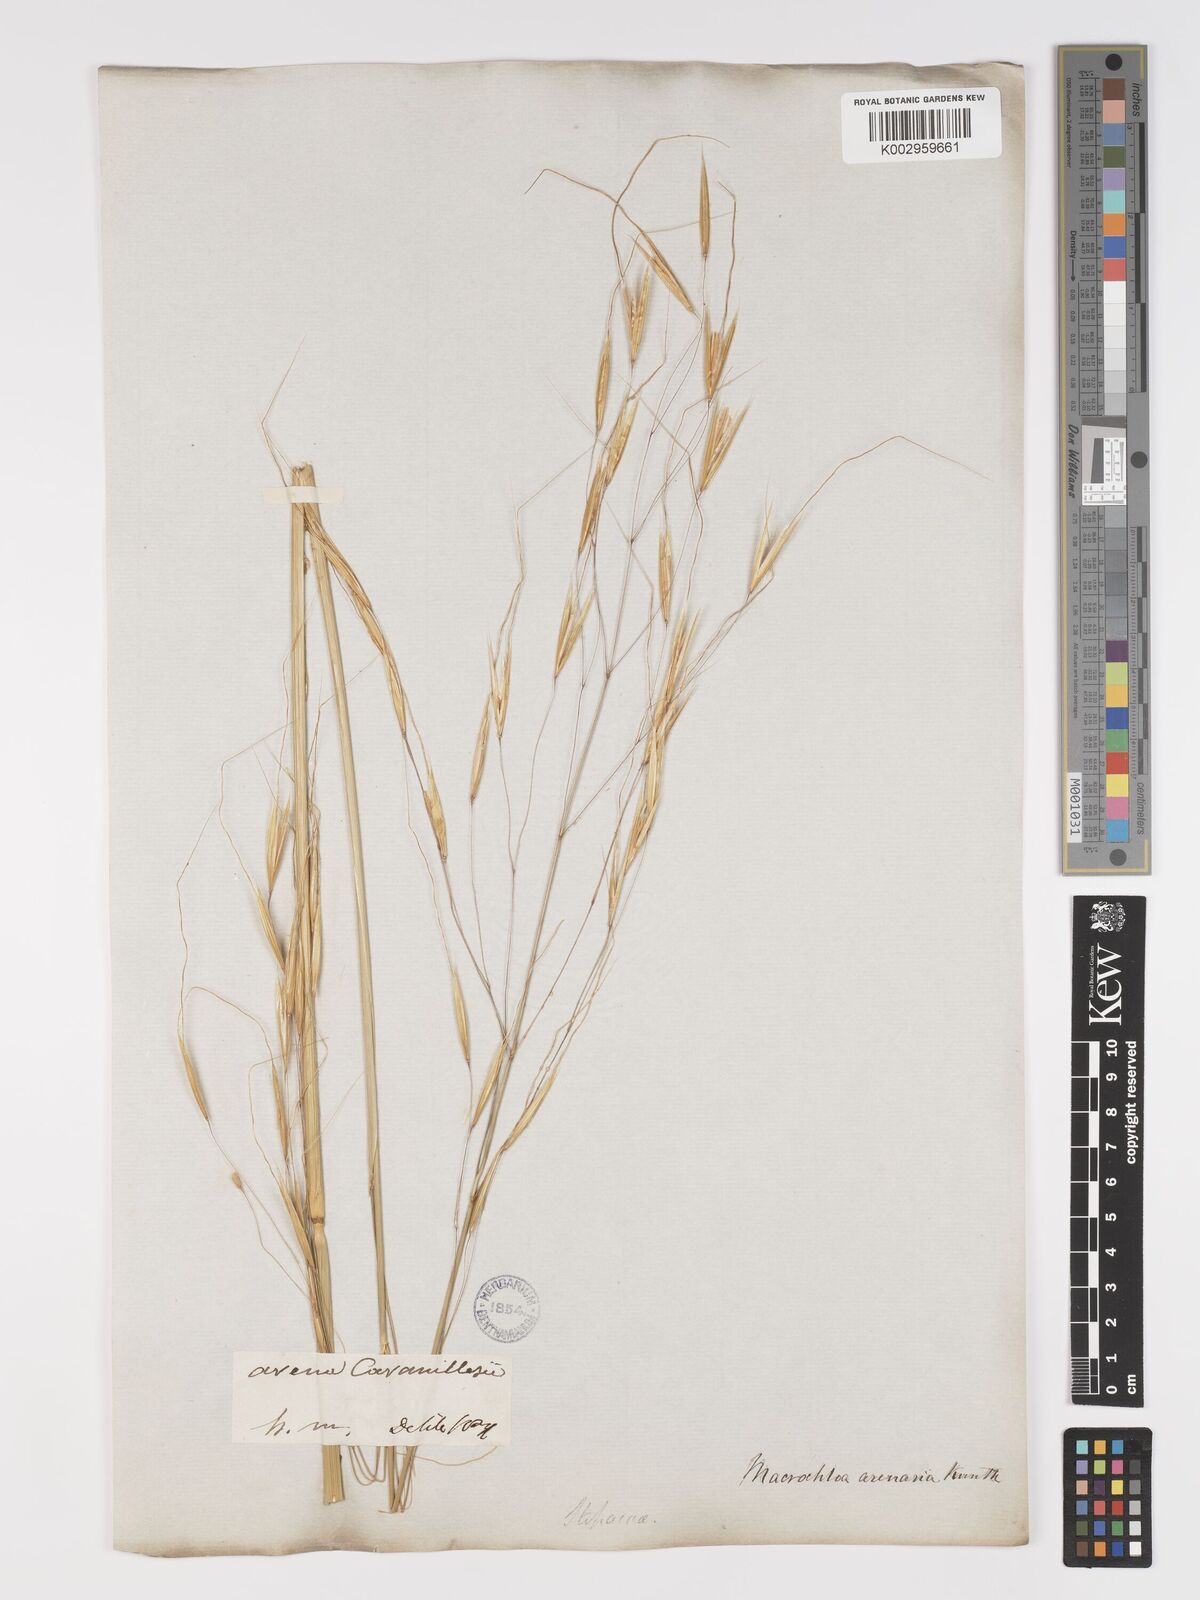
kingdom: Plantae
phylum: Tracheophyta
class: Liliopsida
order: Poales
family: Poaceae
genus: Celtica
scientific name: Celtica gigantea
